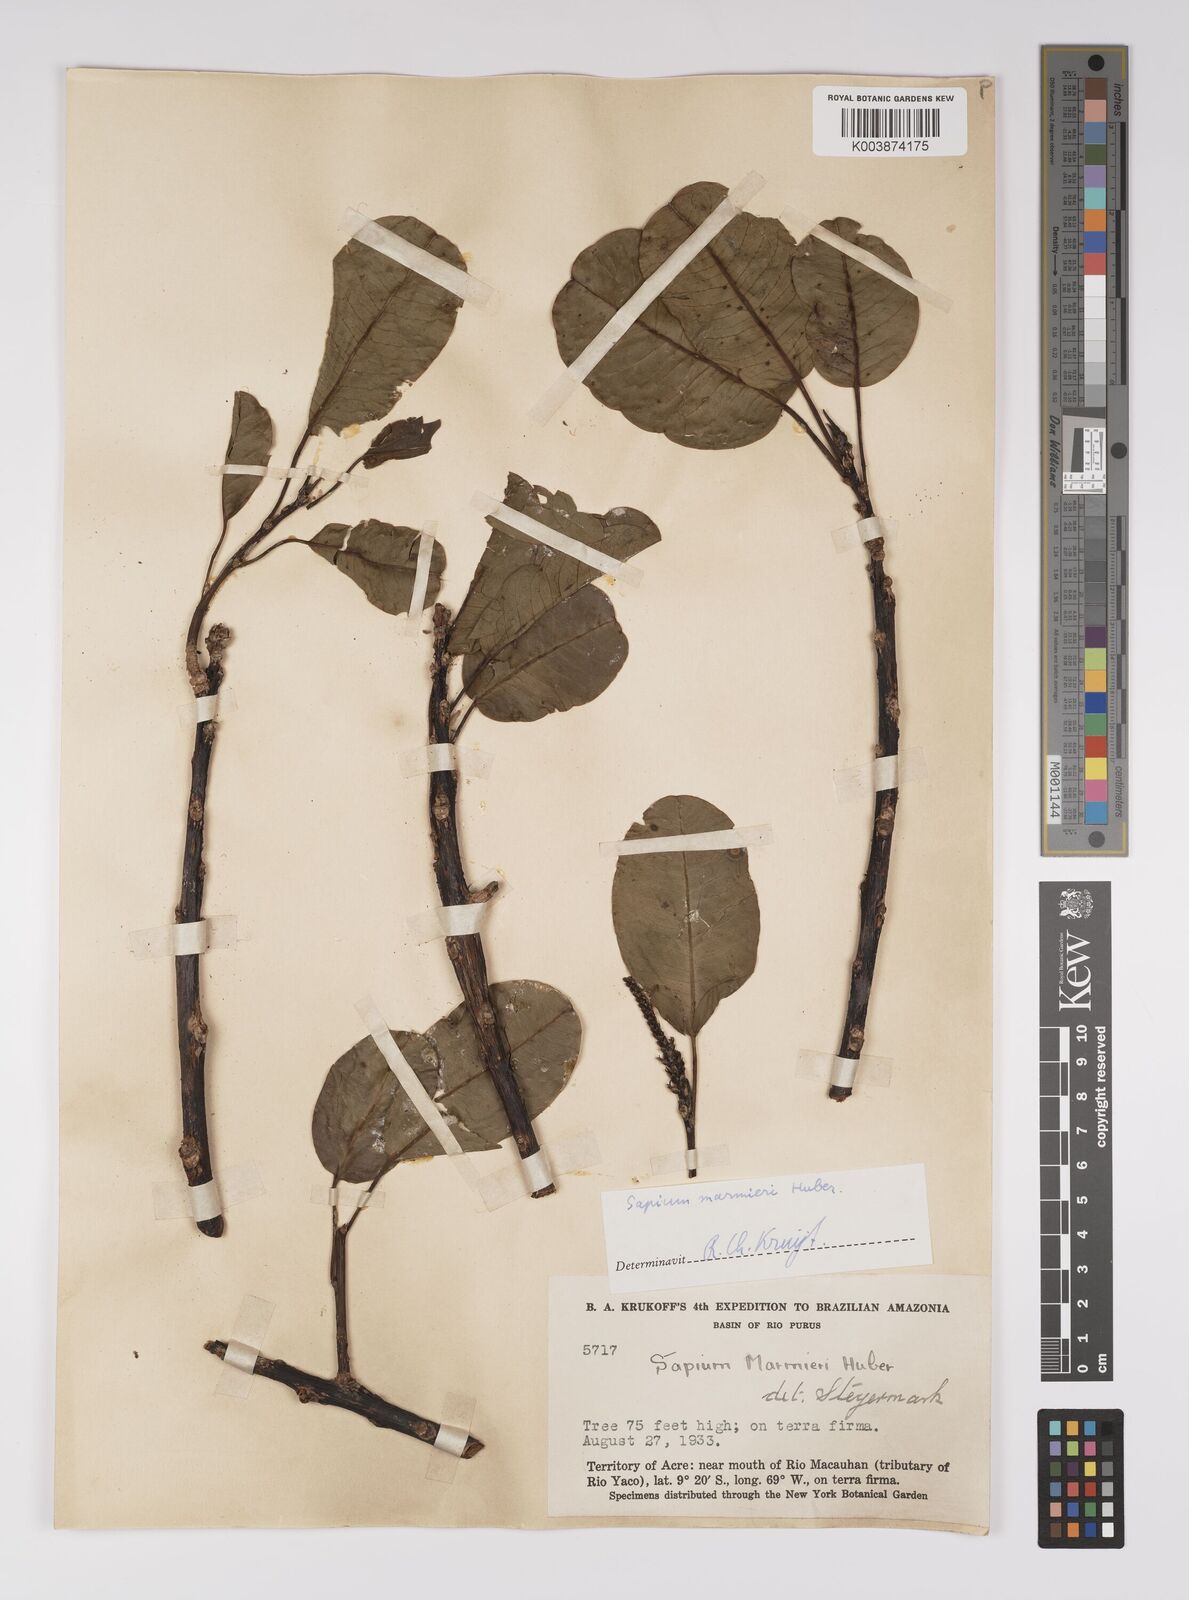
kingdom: Plantae
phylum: Tracheophyta
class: Magnoliopsida
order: Malpighiales
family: Euphorbiaceae
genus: Sapium
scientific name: Sapium marmieri
